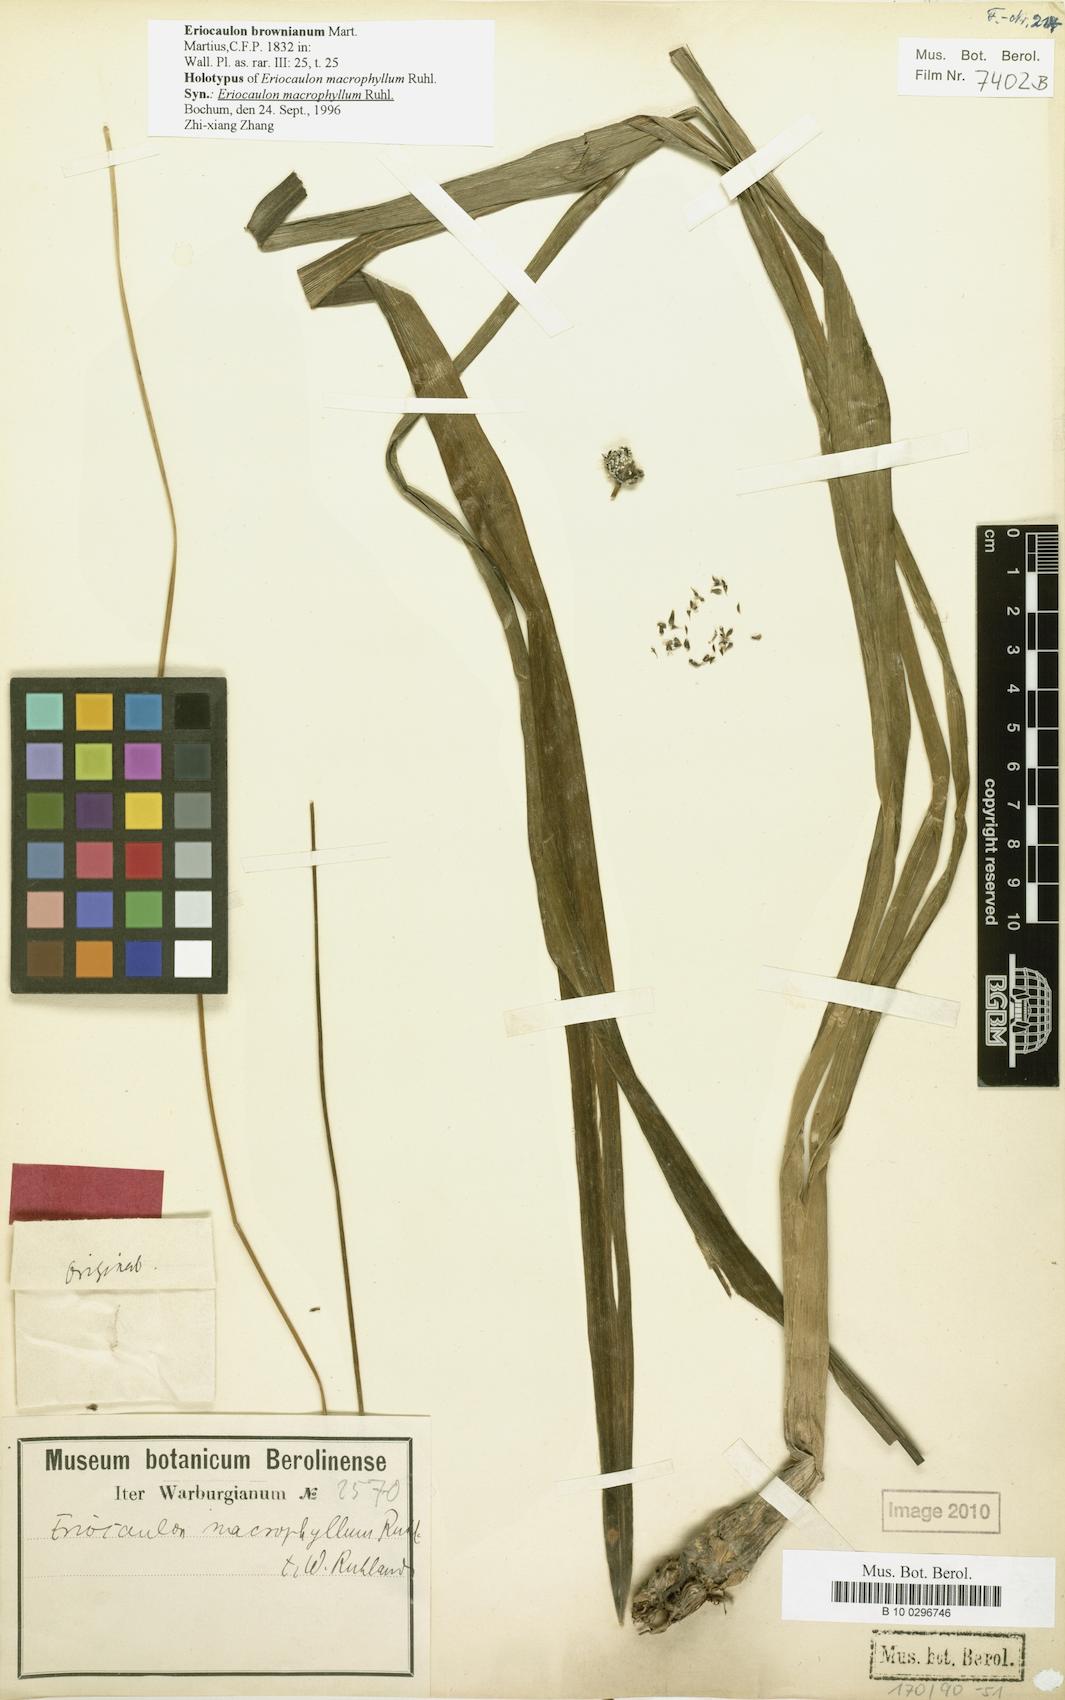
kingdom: Plantae
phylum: Tracheophyta
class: Liliopsida
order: Poales
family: Eriocaulaceae
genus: Eriocaulon
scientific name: Eriocaulon brownianum
